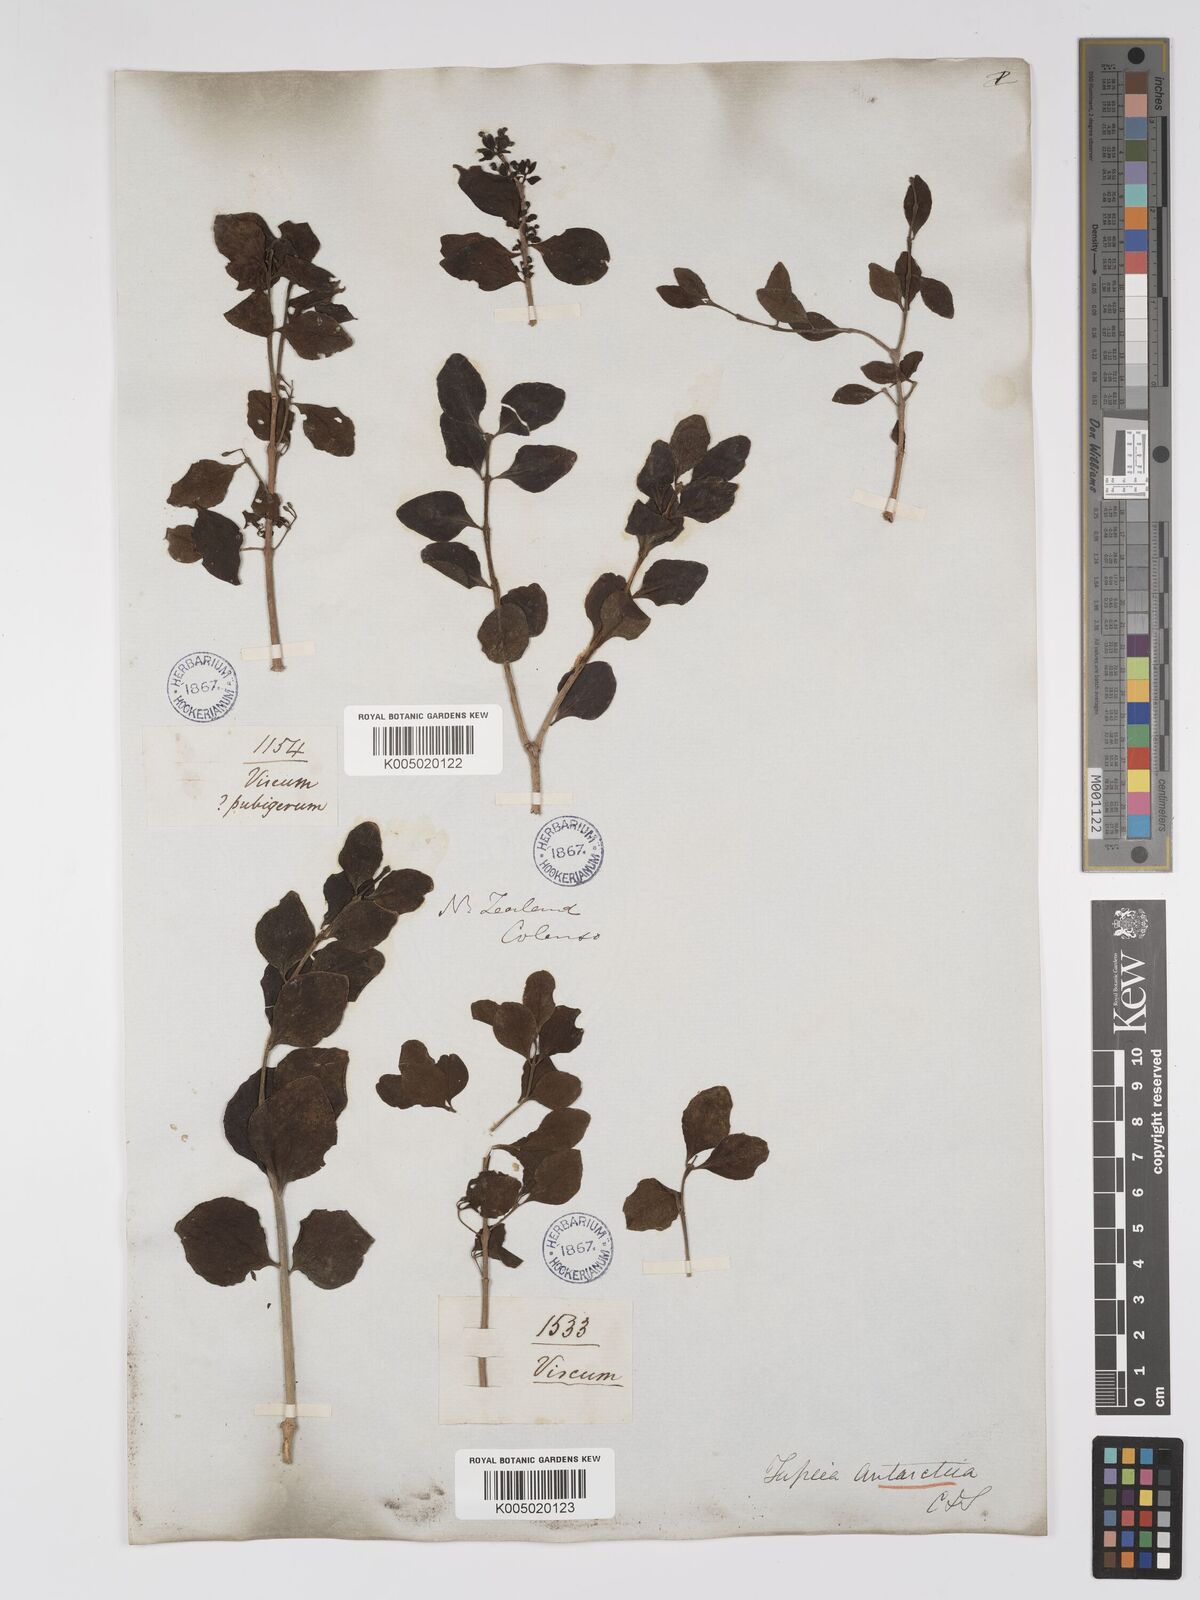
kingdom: Plantae
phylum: Tracheophyta
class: Magnoliopsida
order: Santalales
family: Loranthaceae
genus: Tupeia
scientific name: Tupeia antarctica
